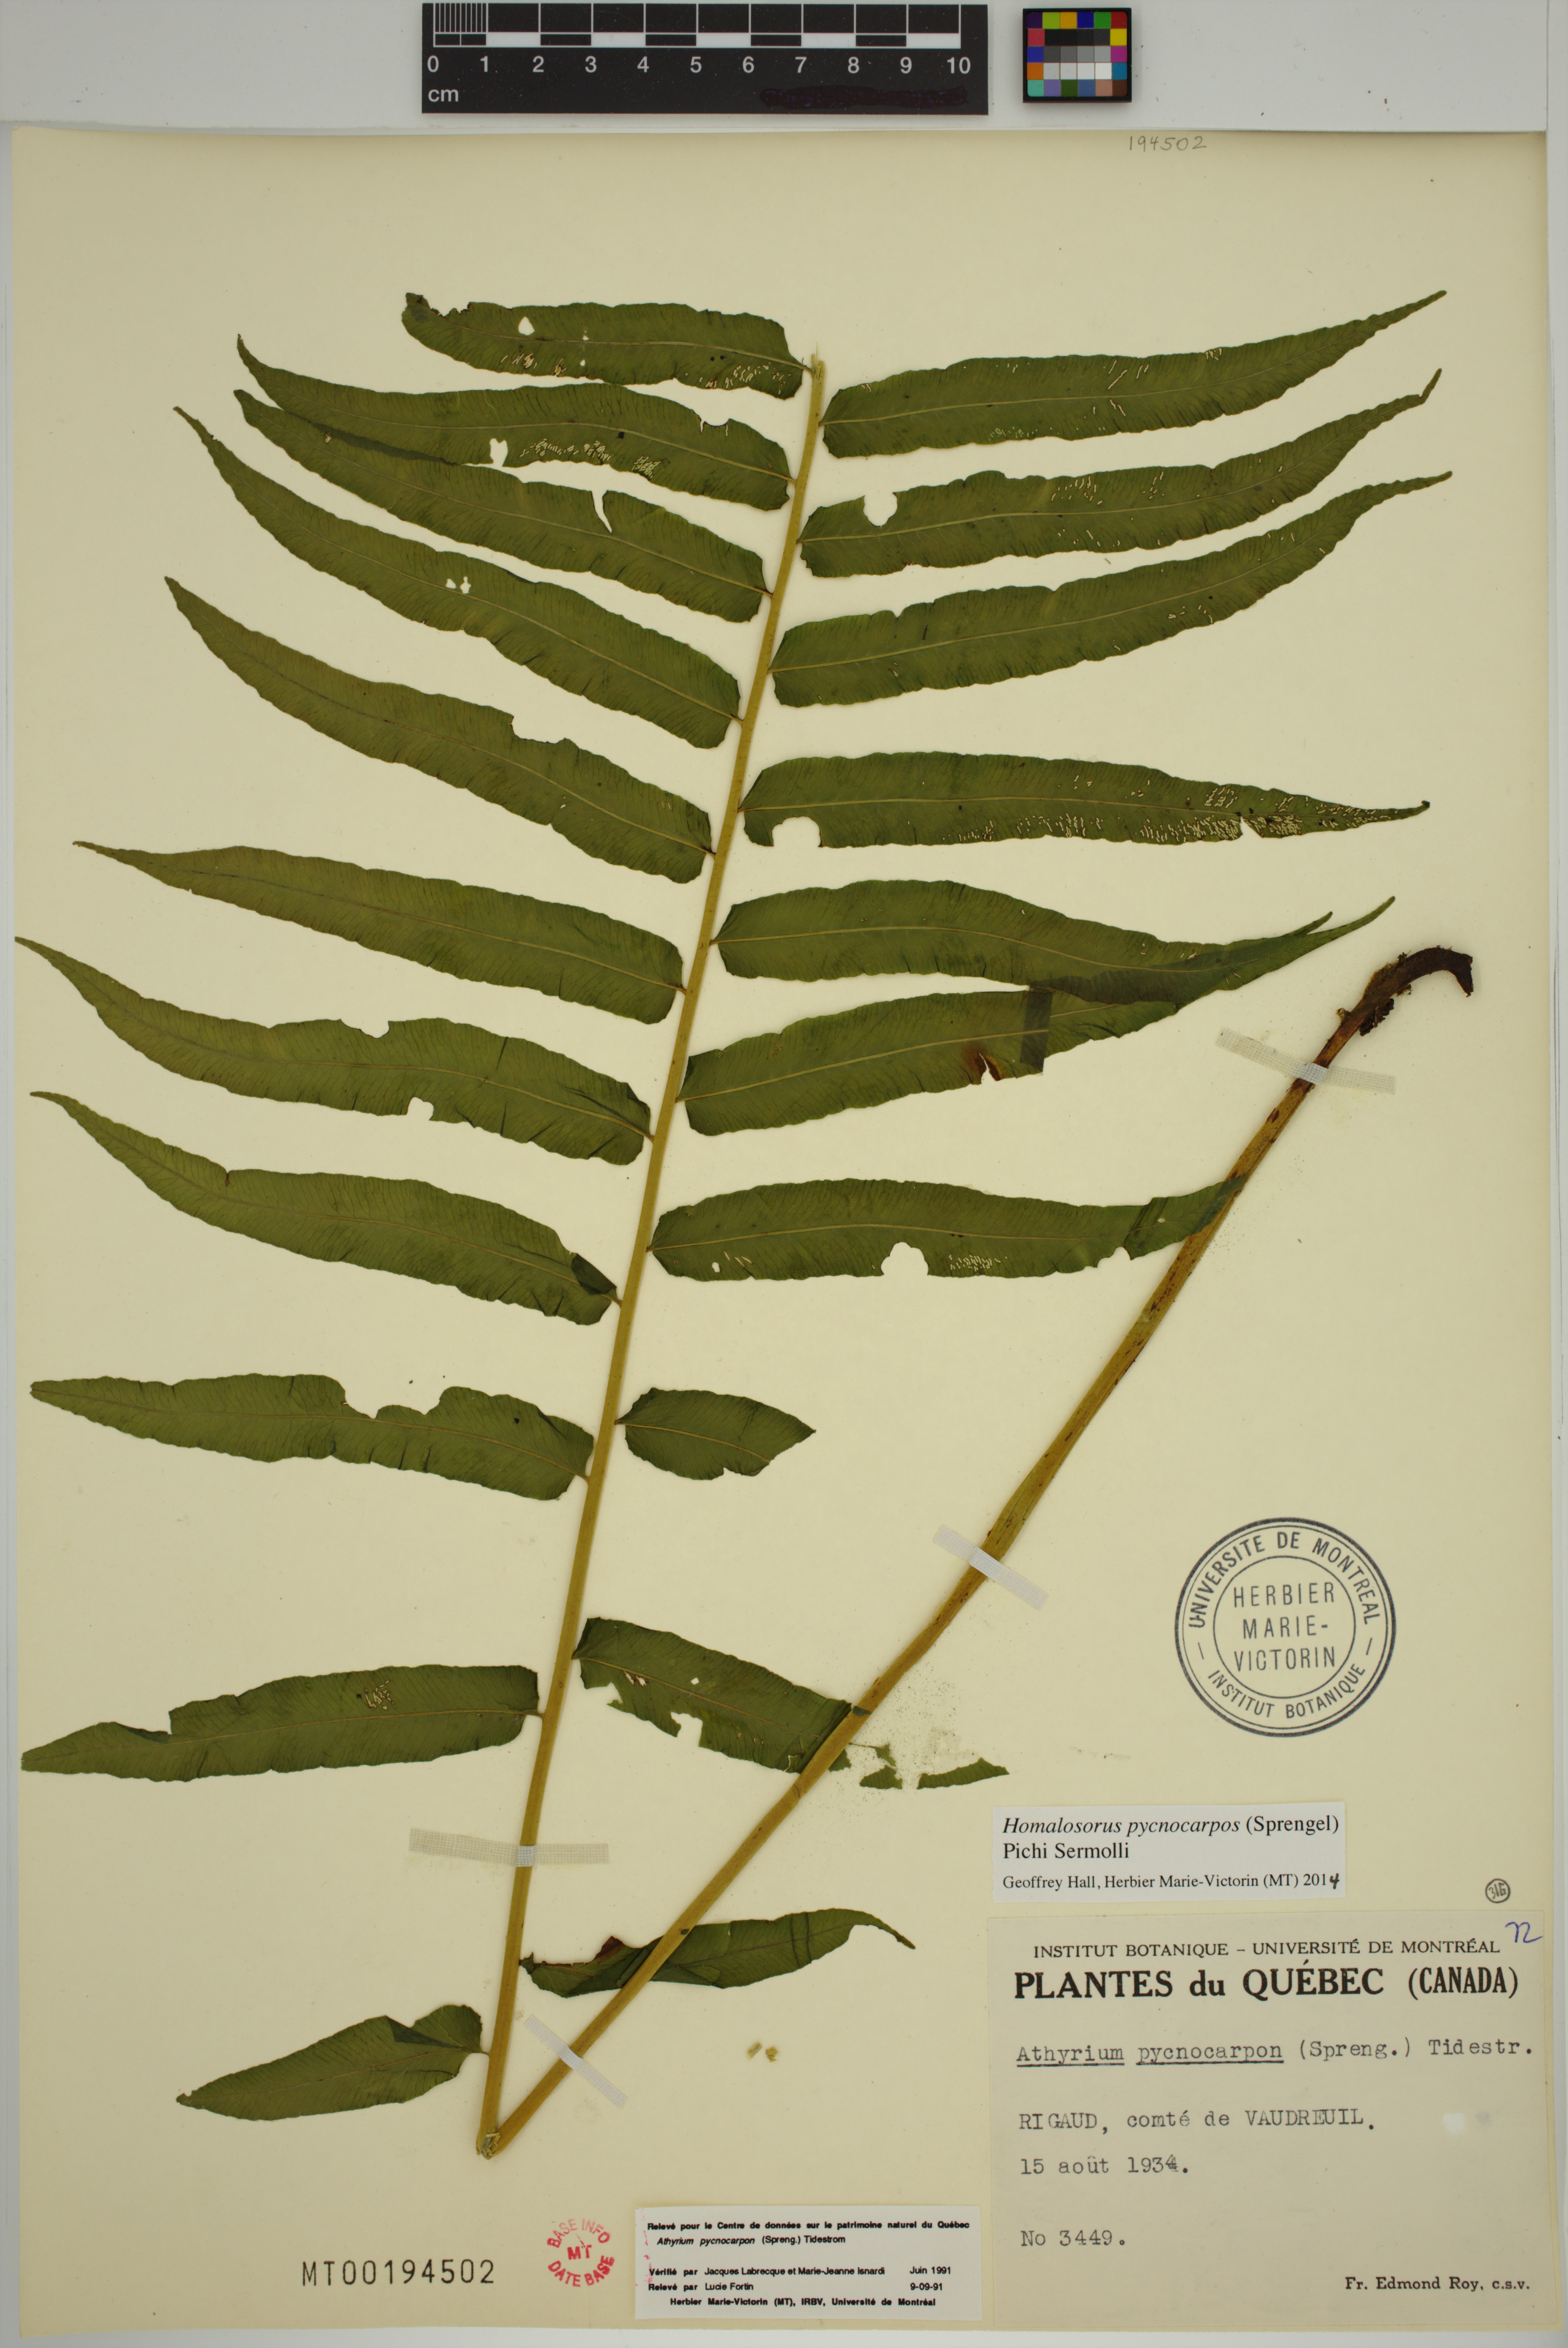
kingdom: Plantae
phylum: Tracheophyta
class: Polypodiopsida
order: Polypodiales
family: Diplaziopsidaceae
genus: Homalosorus
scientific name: Homalosorus pycnocarpos
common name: Glade fern
